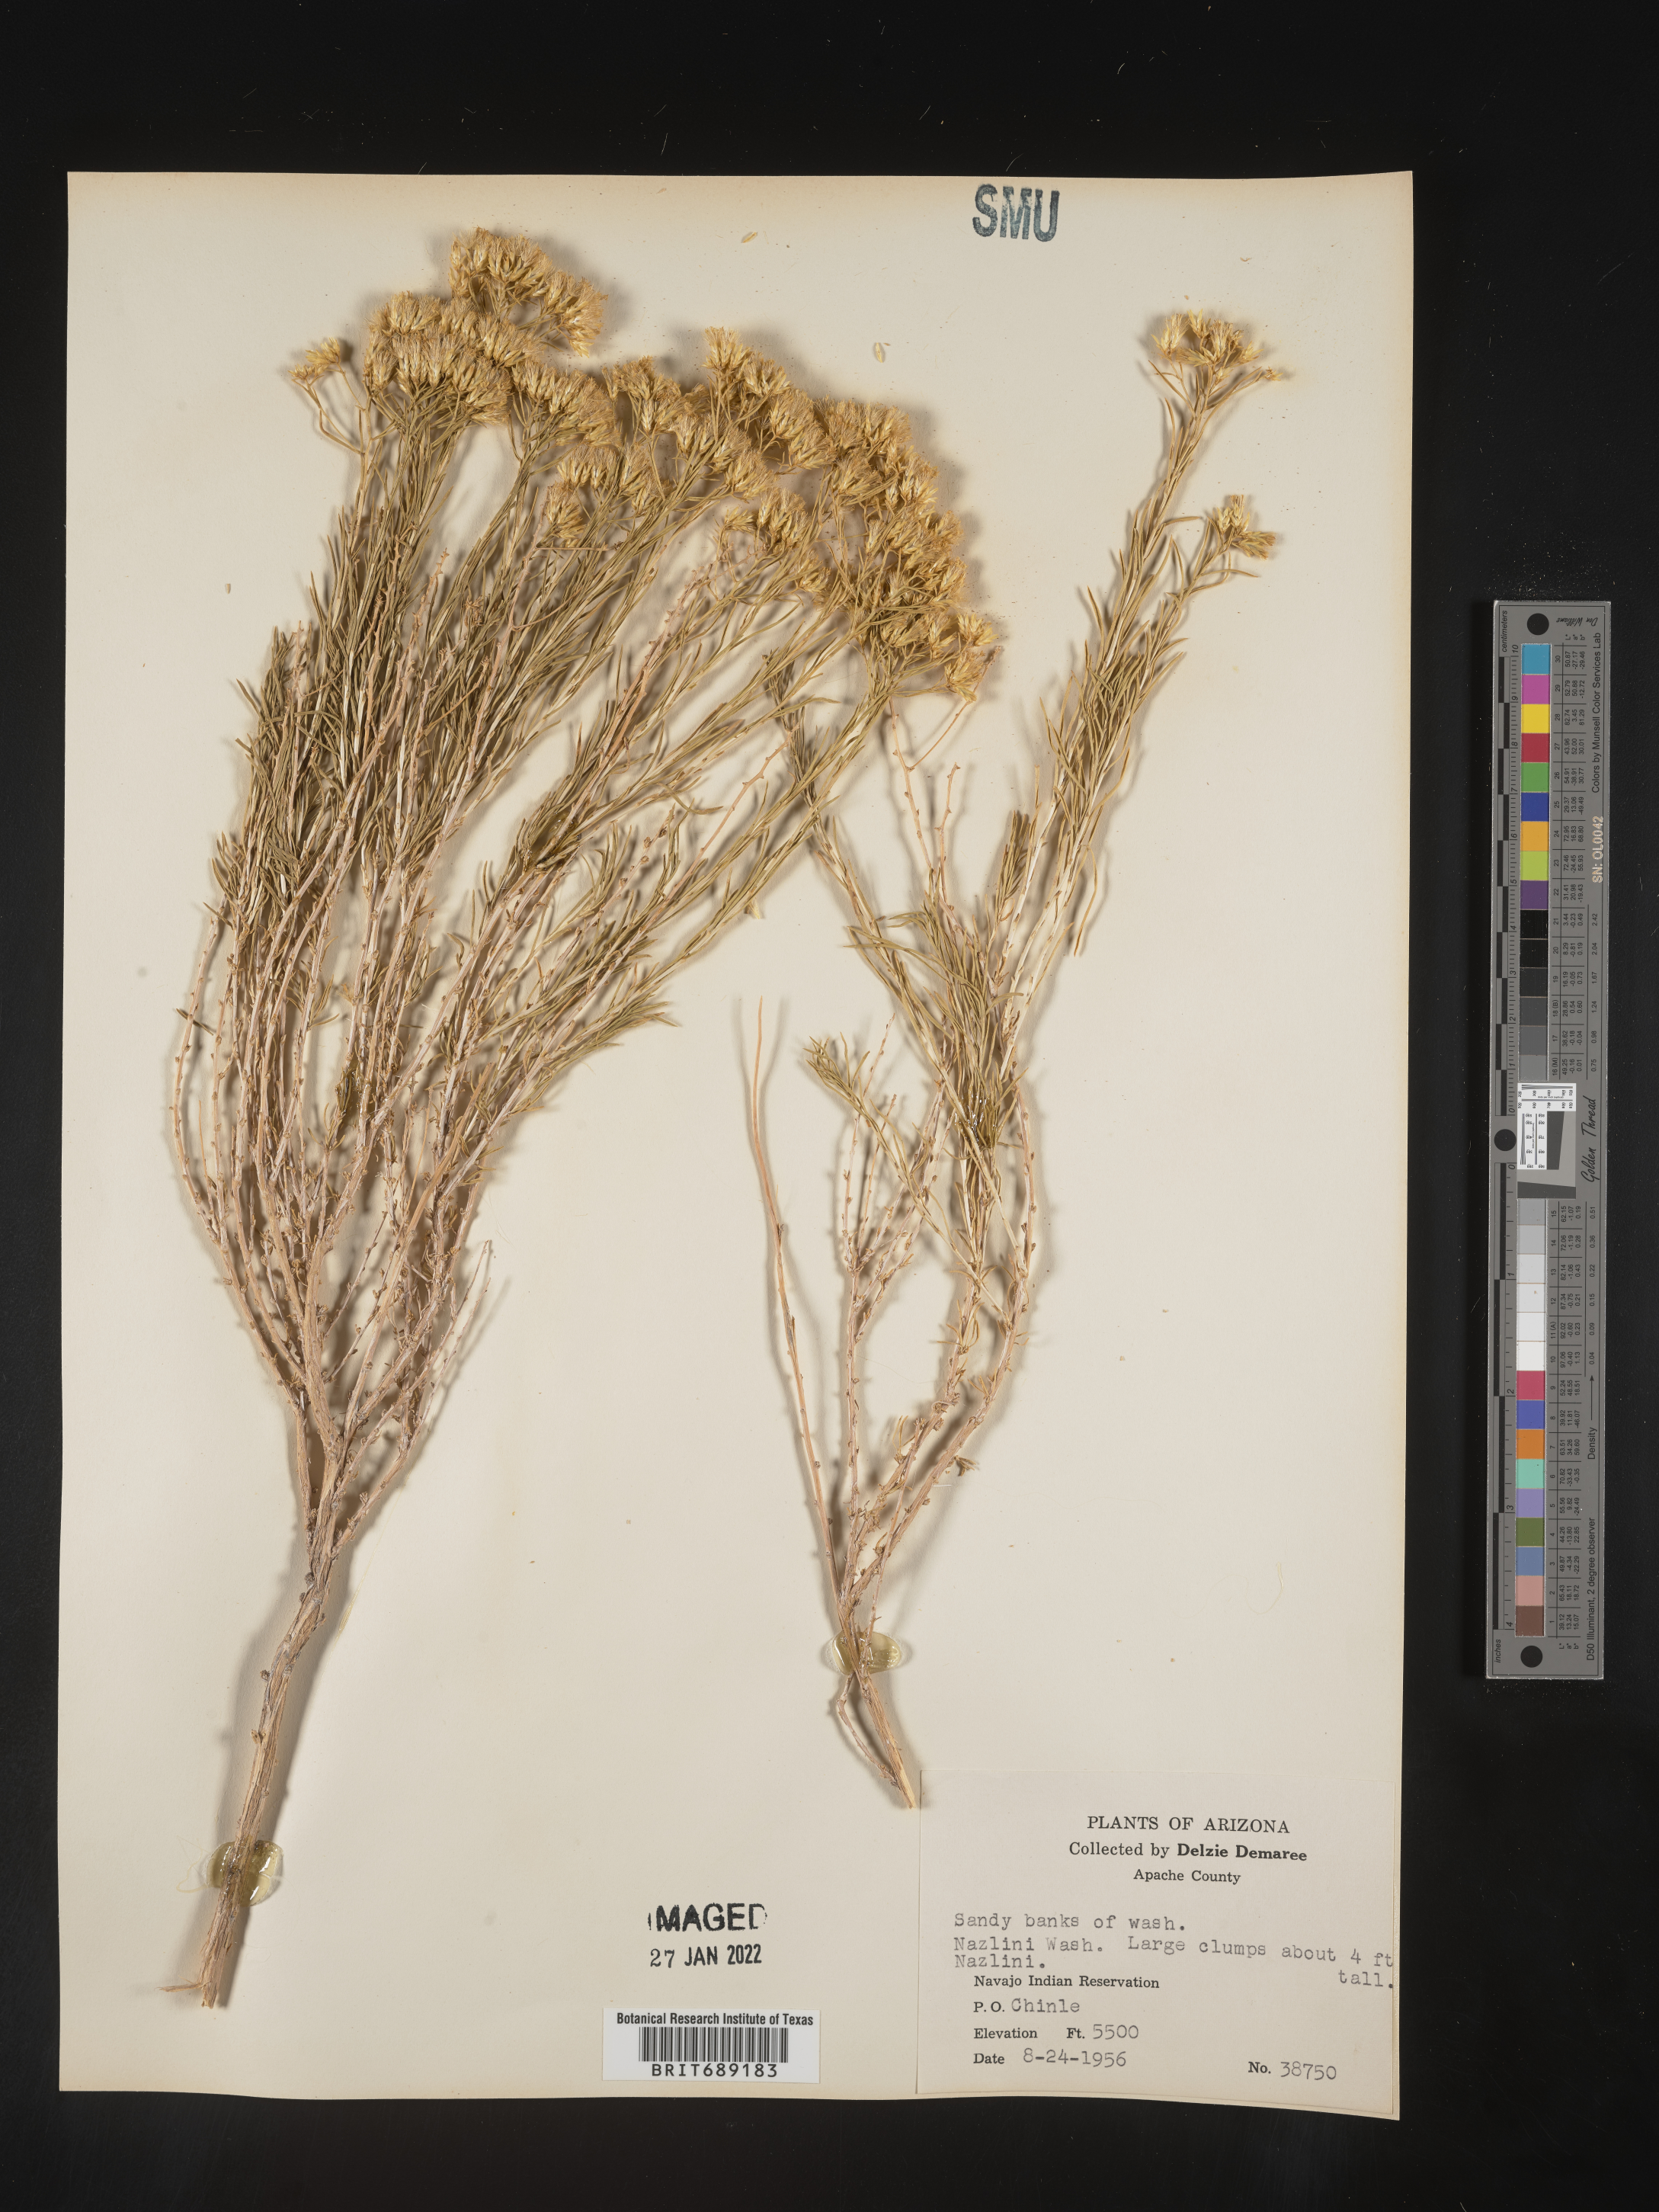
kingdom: Plantae
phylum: Tracheophyta
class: Magnoliopsida
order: Asterales
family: Asteraceae
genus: Chrysothamnus
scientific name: Chrysothamnus
